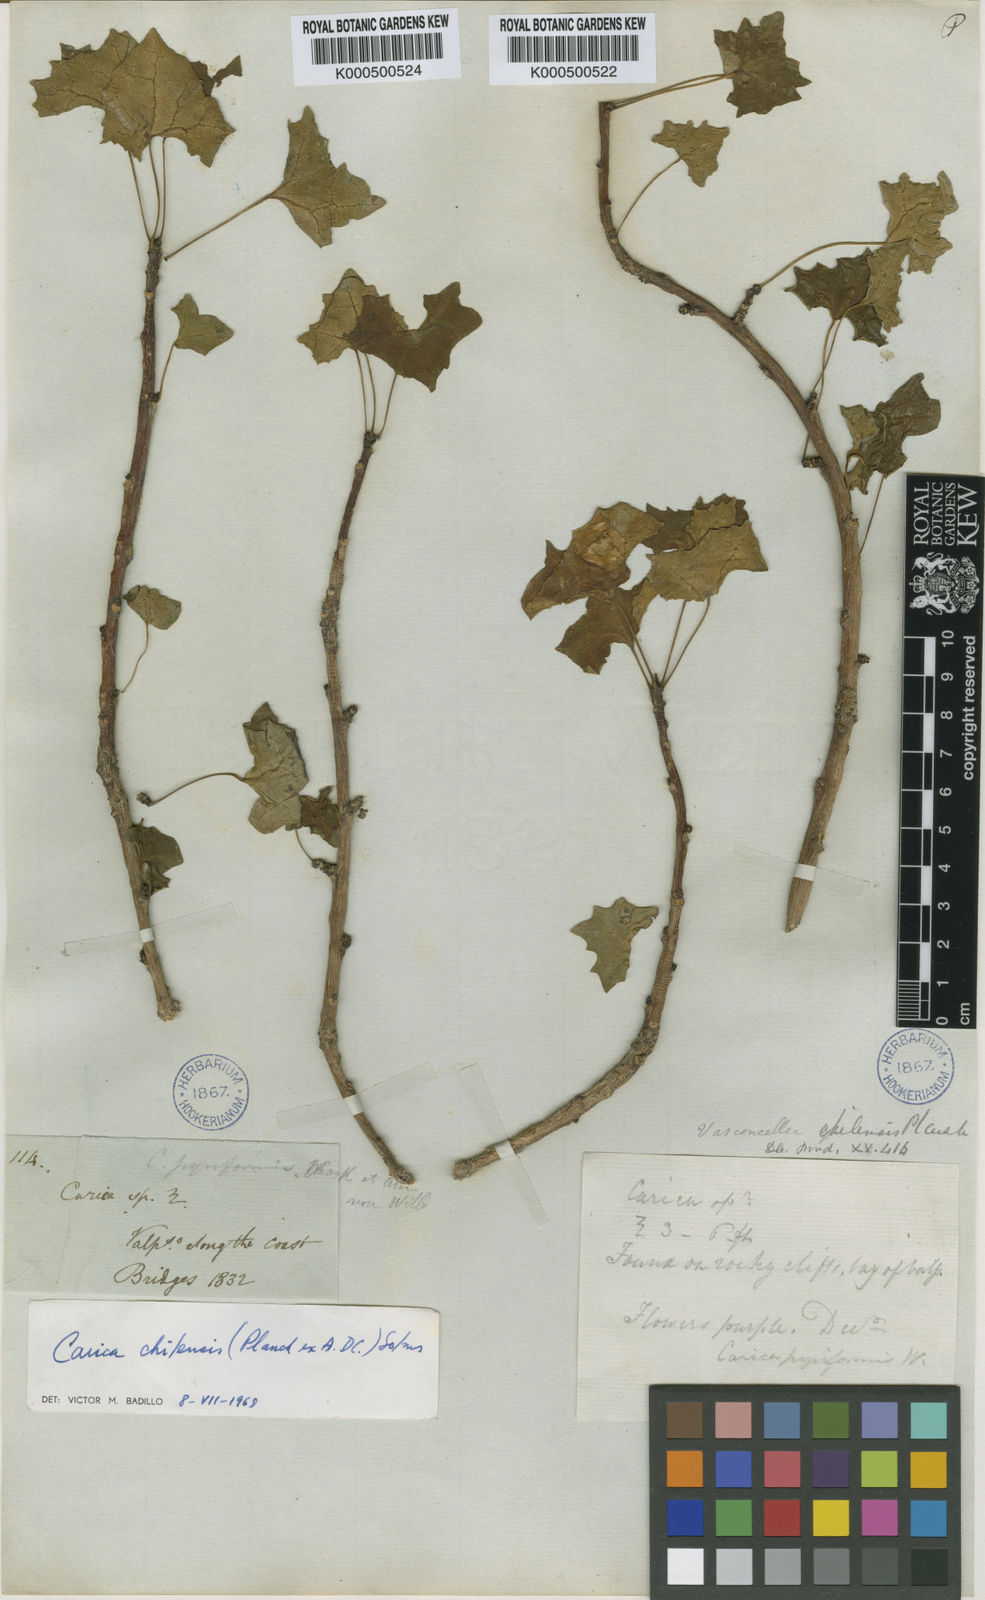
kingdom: Plantae
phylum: Tracheophyta
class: Magnoliopsida
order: Brassicales
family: Caricaceae
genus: Vasconcellea
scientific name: Vasconcellea chilensis
